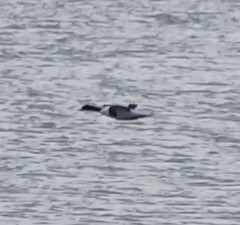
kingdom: Animalia
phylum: Chordata
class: Aves
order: Anseriformes
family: Anatidae
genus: Tadorna
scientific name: Tadorna tadorna
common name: Gravand
